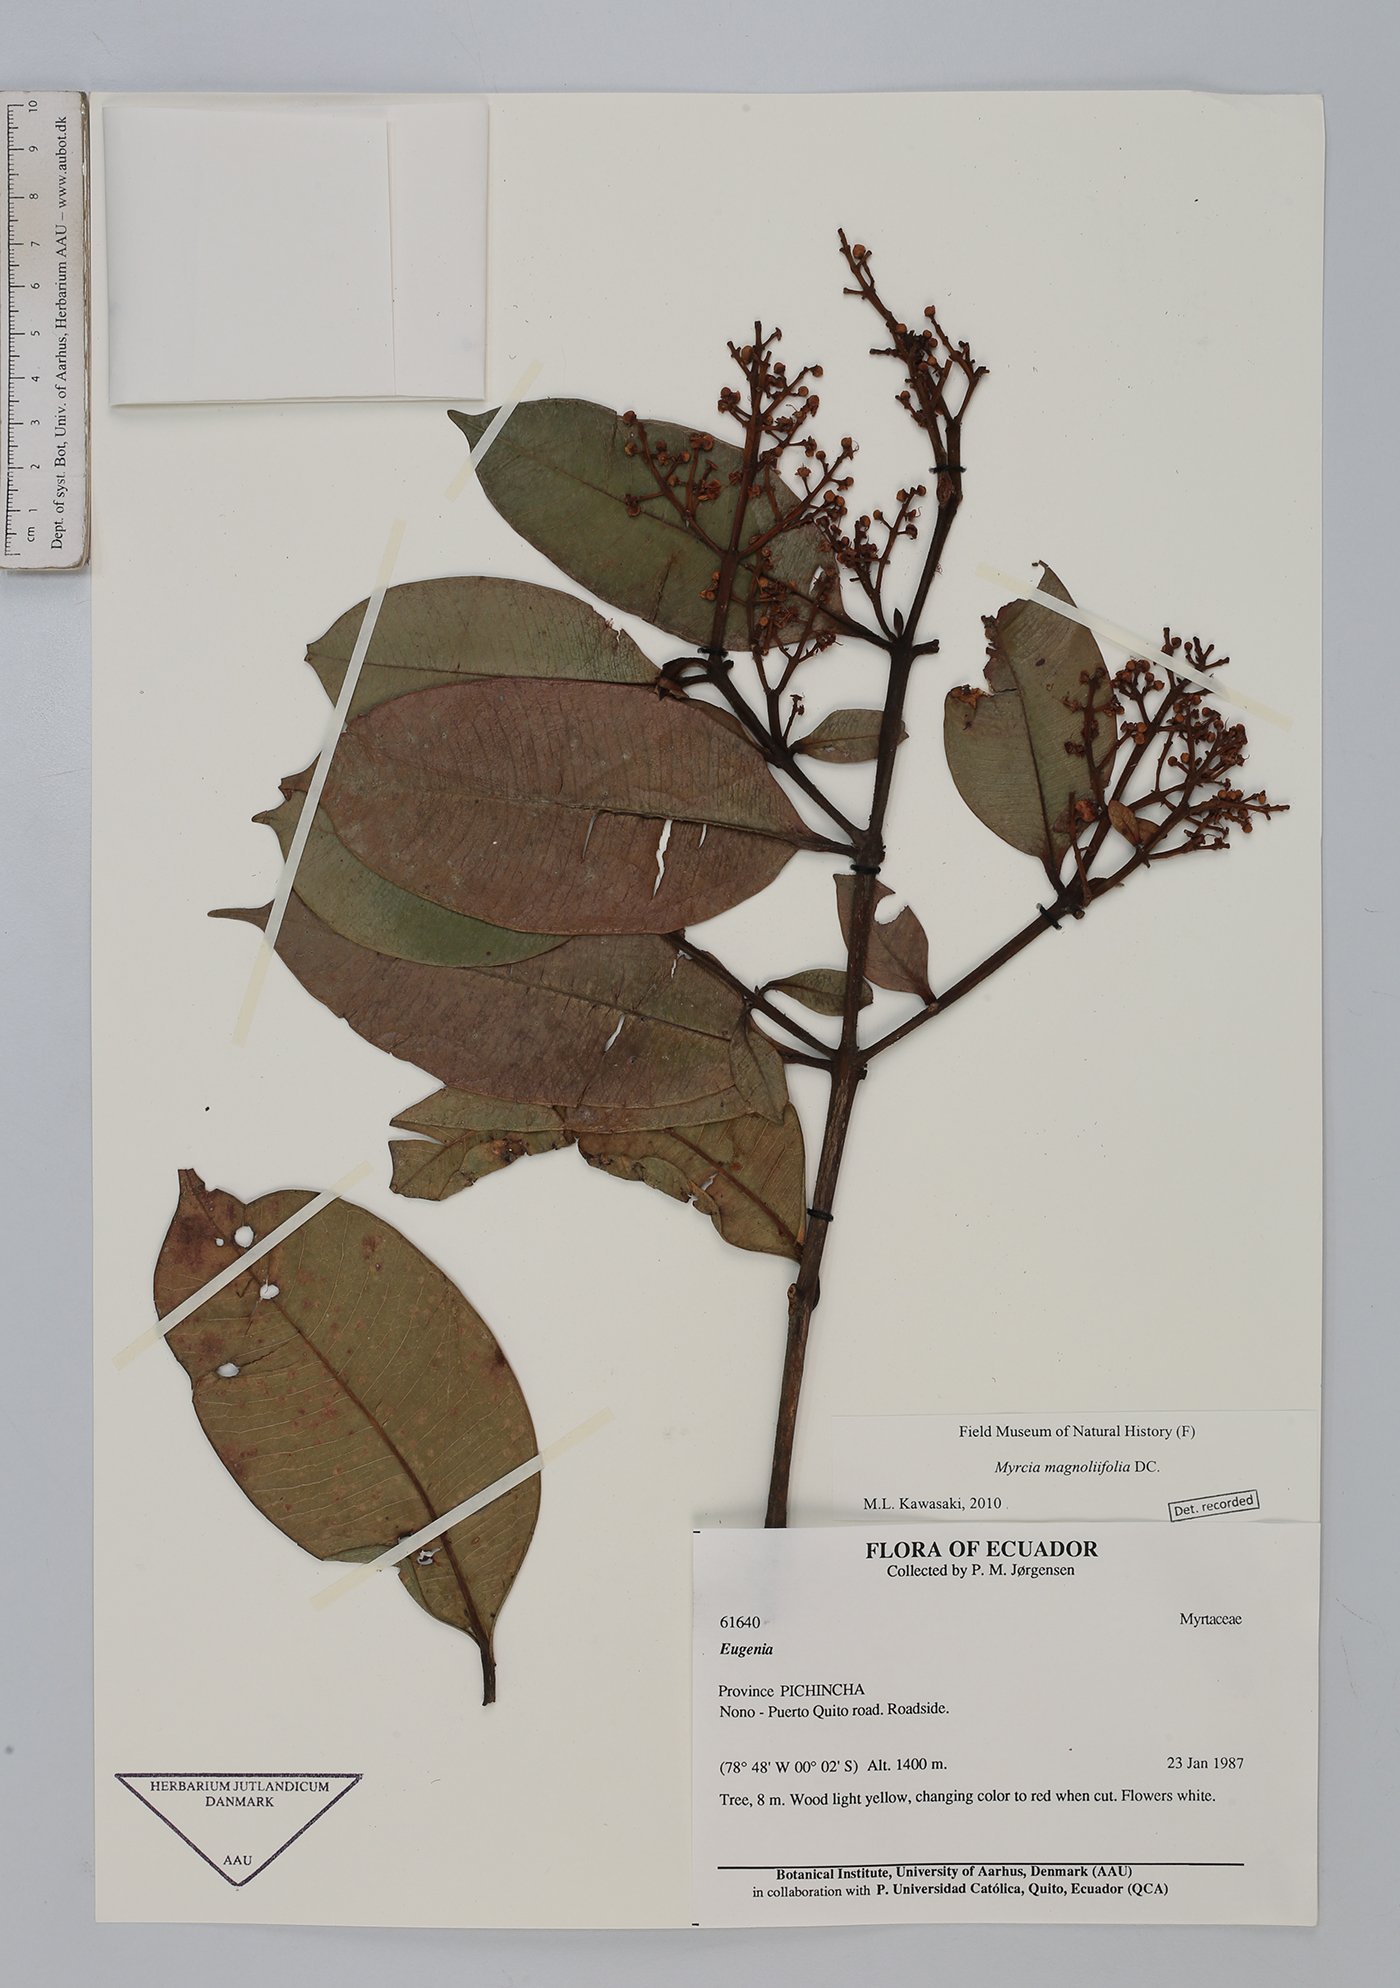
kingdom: Plantae
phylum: Tracheophyta
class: Magnoliopsida
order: Myrtales
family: Myrtaceae
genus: Myrcia
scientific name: Myrcia splendens
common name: Surinam cherry
